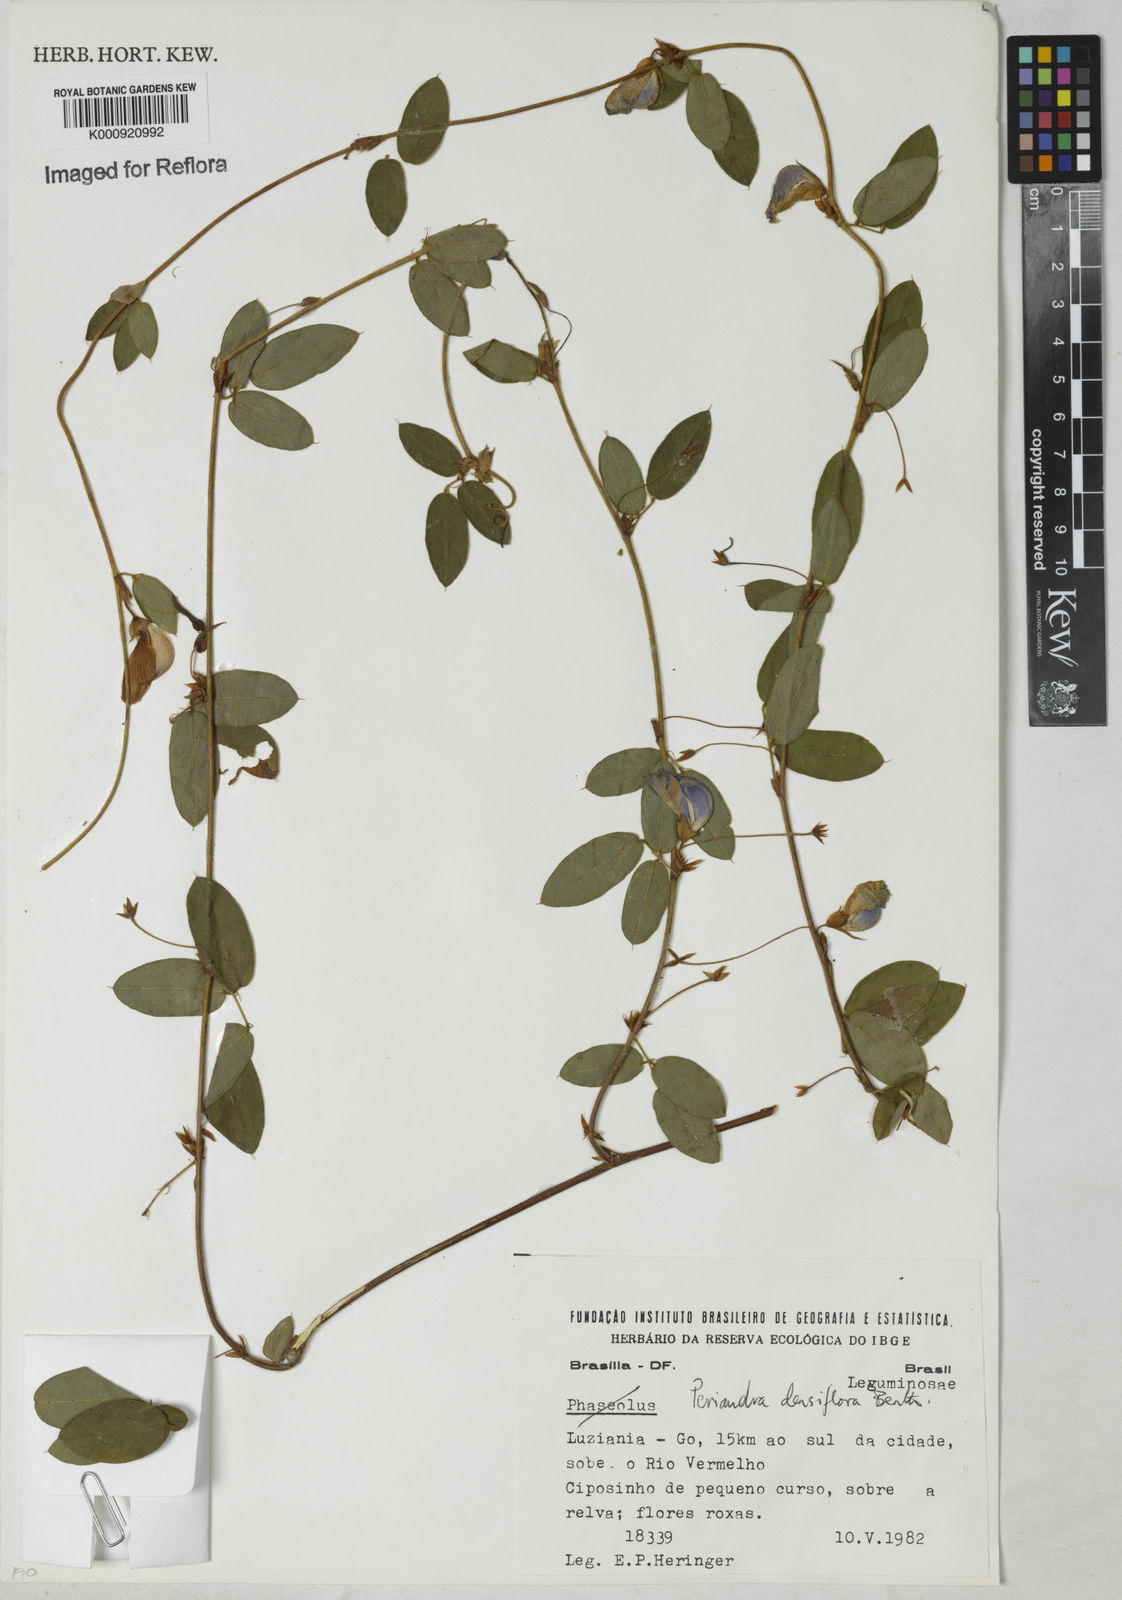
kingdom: Plantae
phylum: Tracheophyta
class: Magnoliopsida
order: Fabales
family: Fabaceae
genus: Periandra
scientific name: Periandra densiflora
